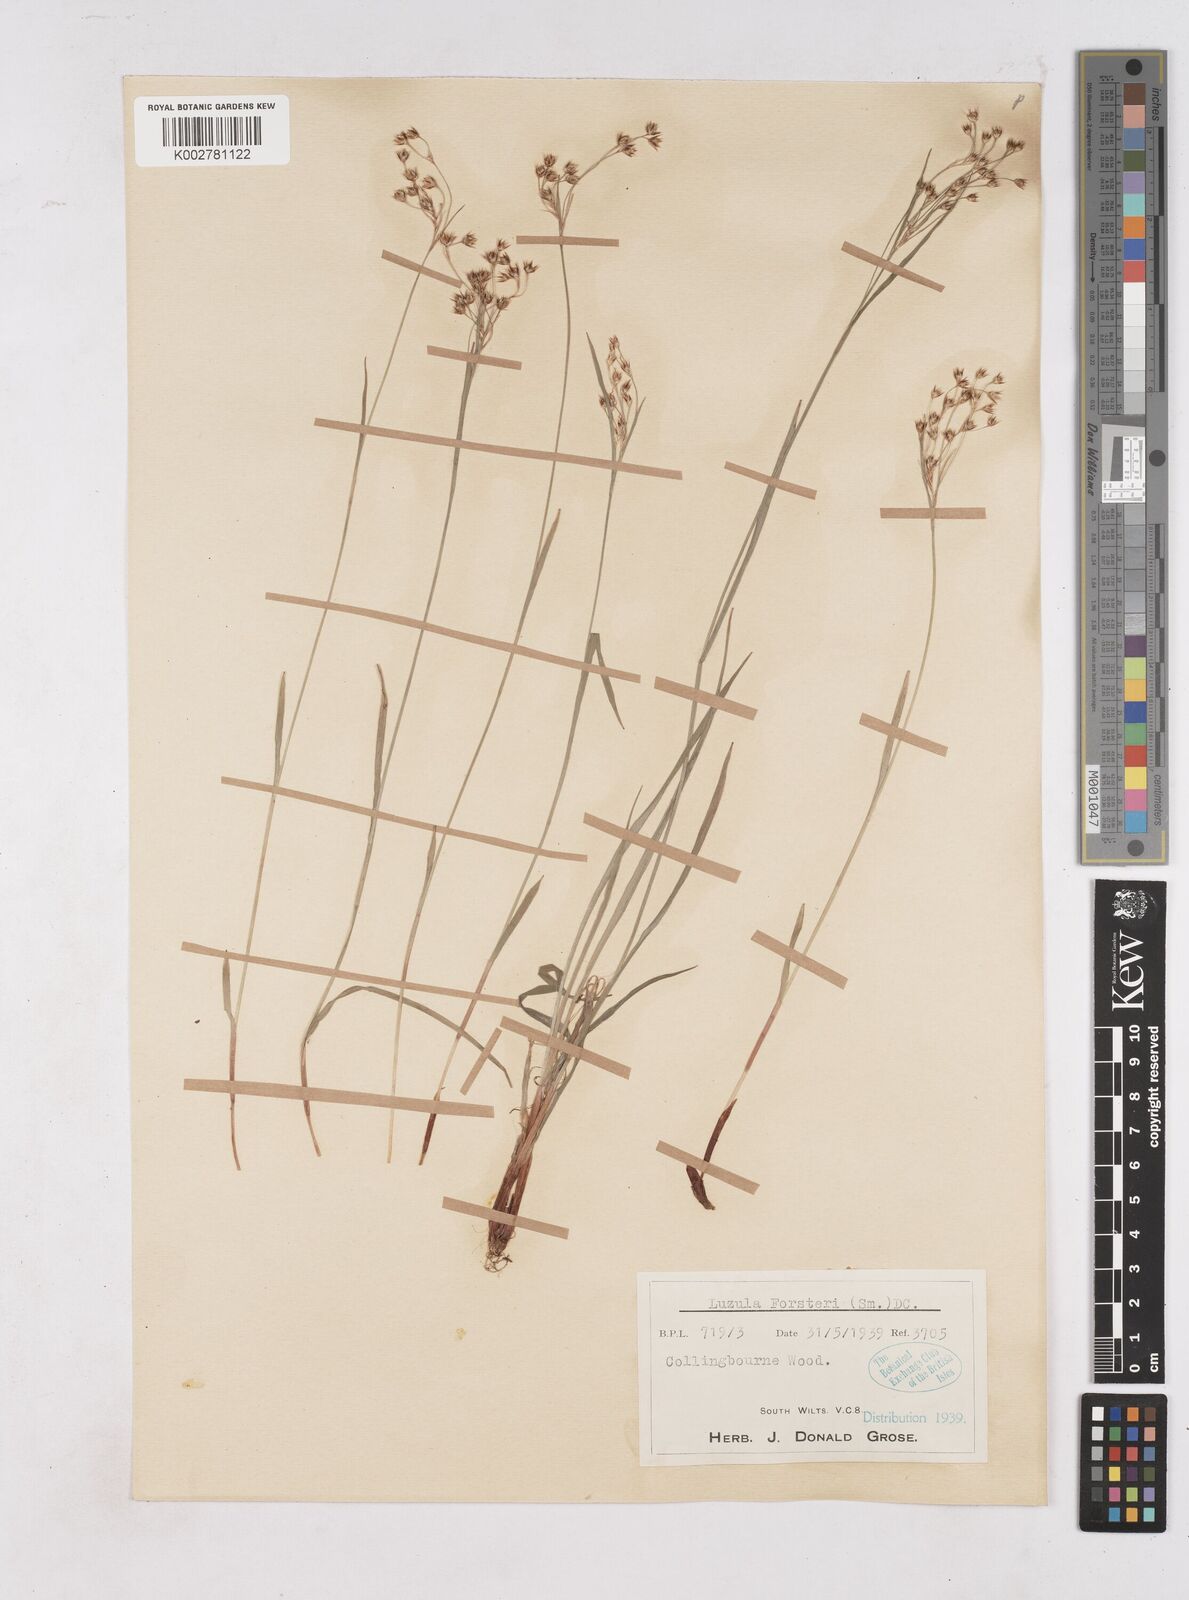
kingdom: Plantae
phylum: Tracheophyta
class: Liliopsida
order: Poales
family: Juncaceae
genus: Luzula
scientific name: Luzula forsteri
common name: Southern wood-rush
